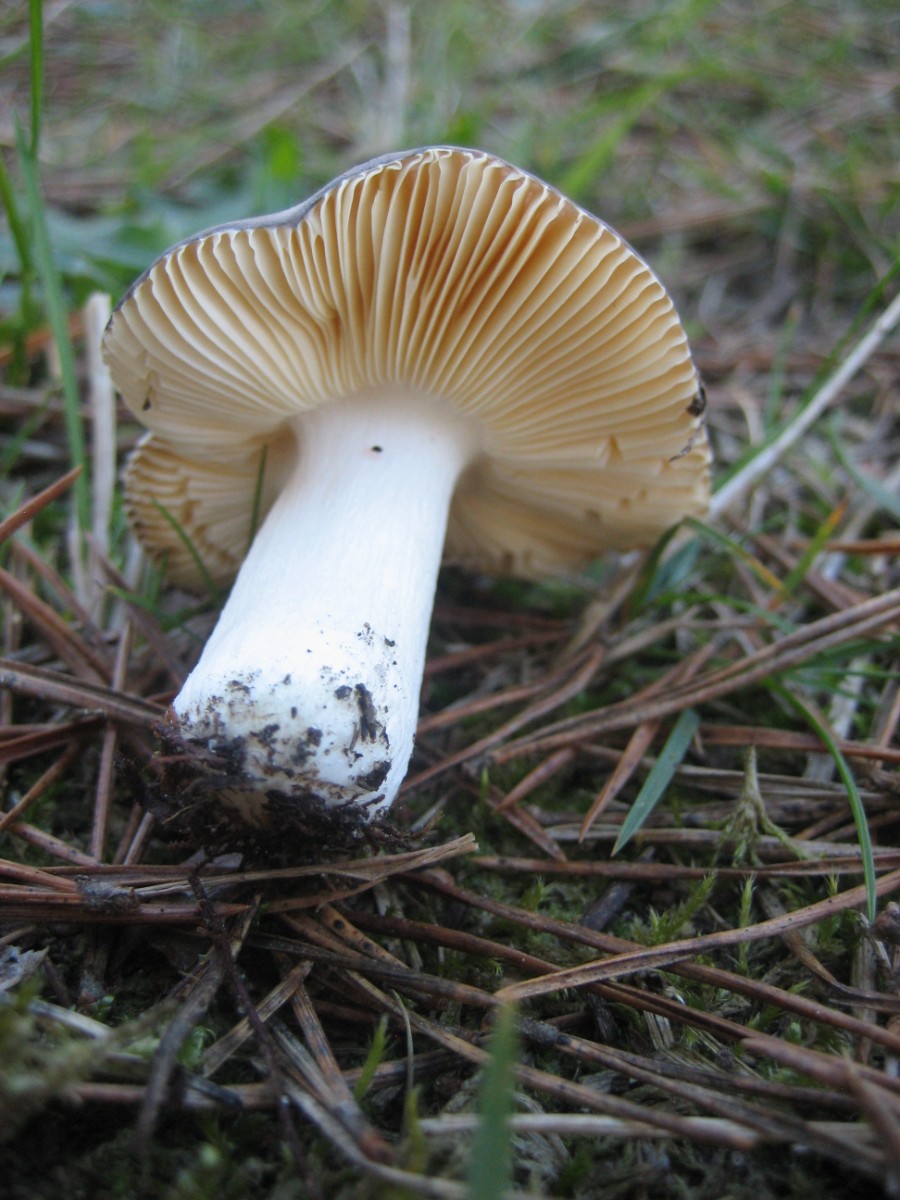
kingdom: Fungi
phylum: Basidiomycota
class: Agaricomycetes
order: Russulales
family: Russulaceae
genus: Russula
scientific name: Russula cessans
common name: fyrre-skørhat
